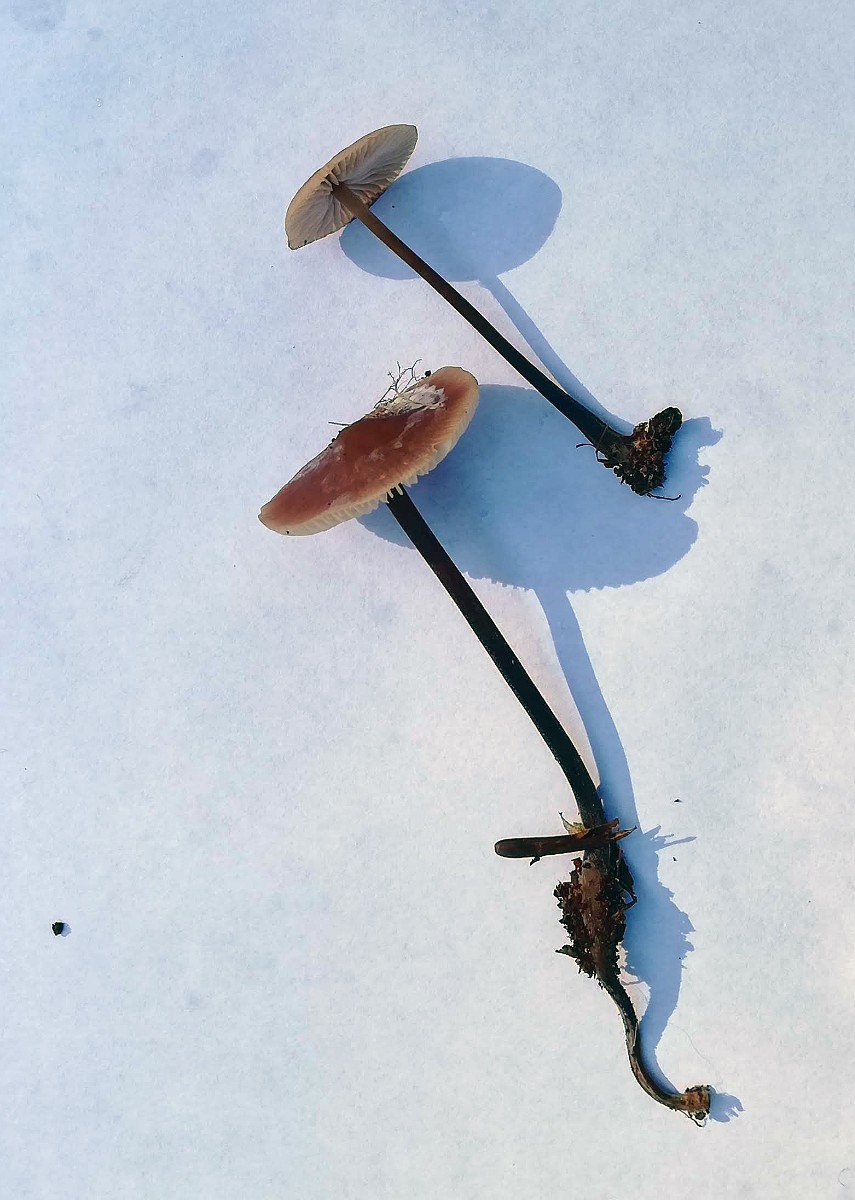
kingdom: Fungi
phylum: Basidiomycota
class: Agaricomycetes
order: Agaricales
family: Omphalotaceae
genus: Mycetinis
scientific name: Mycetinis alliaceus
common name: stor løghat
